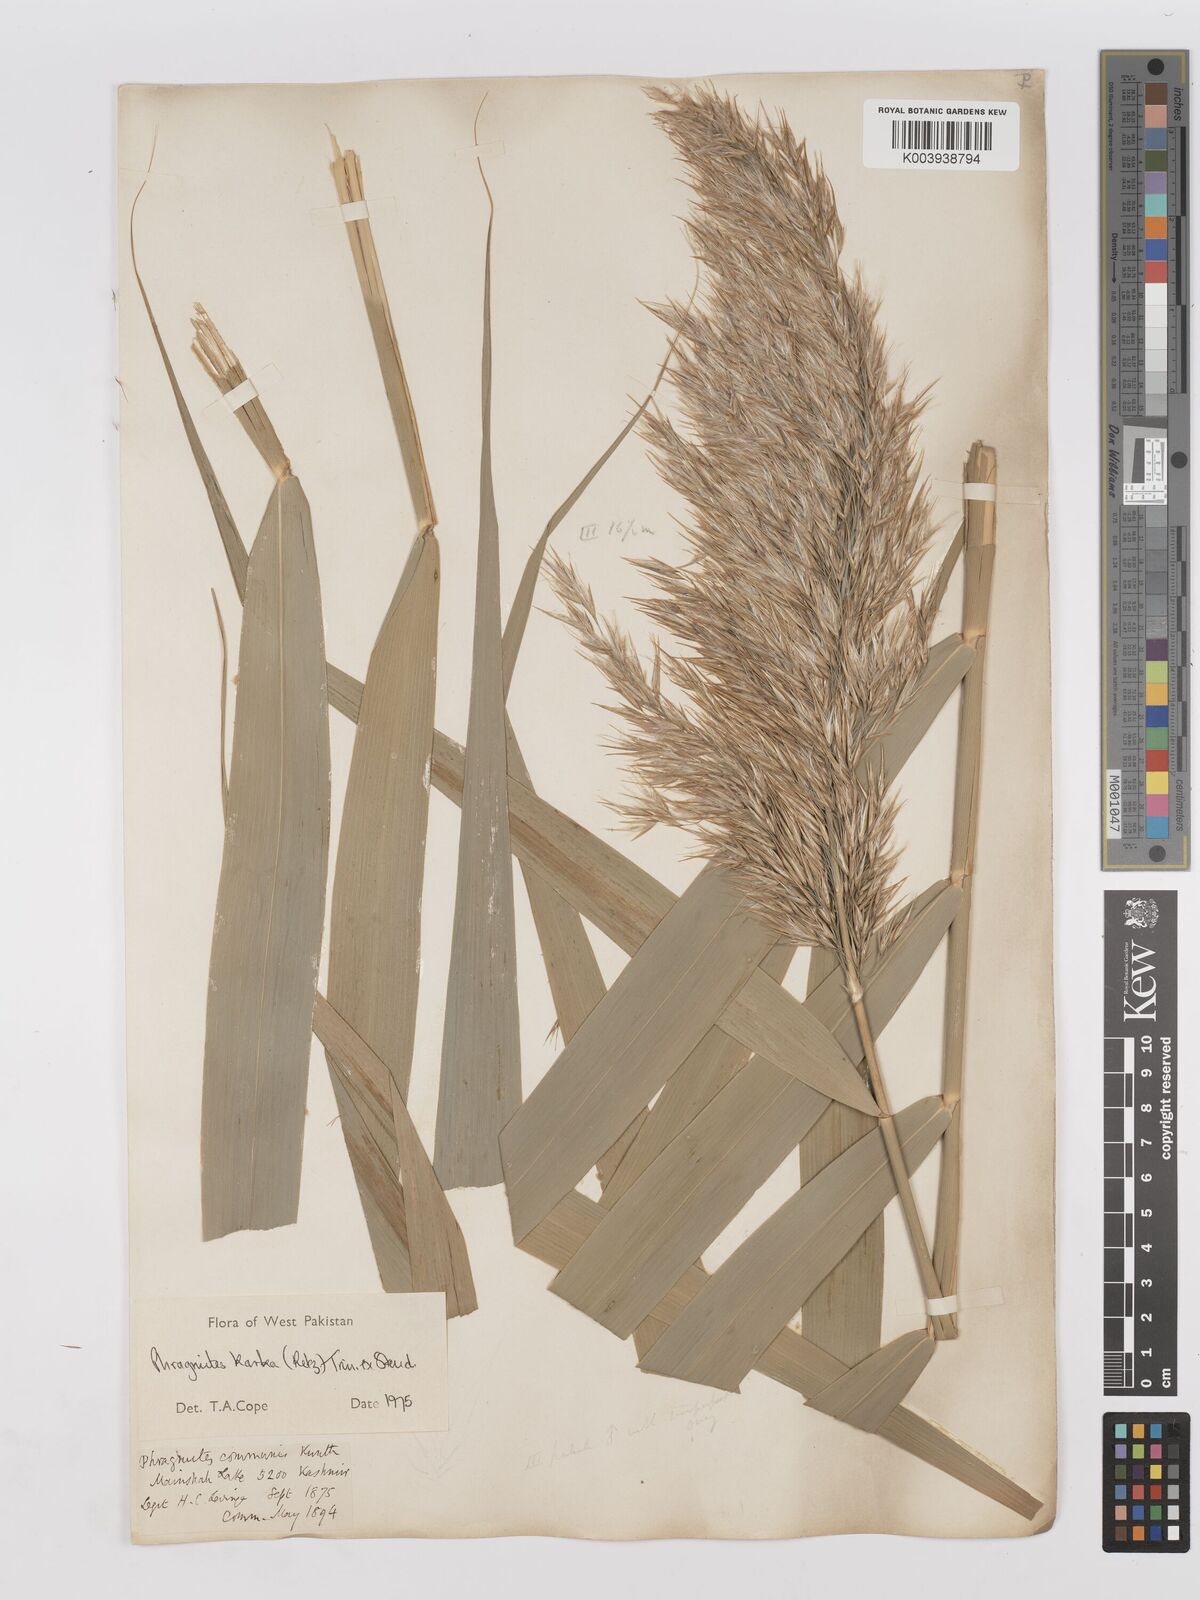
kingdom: Plantae
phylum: Tracheophyta
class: Liliopsida
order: Poales
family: Poaceae
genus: Phragmites
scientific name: Phragmites karka
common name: Tropical reed
